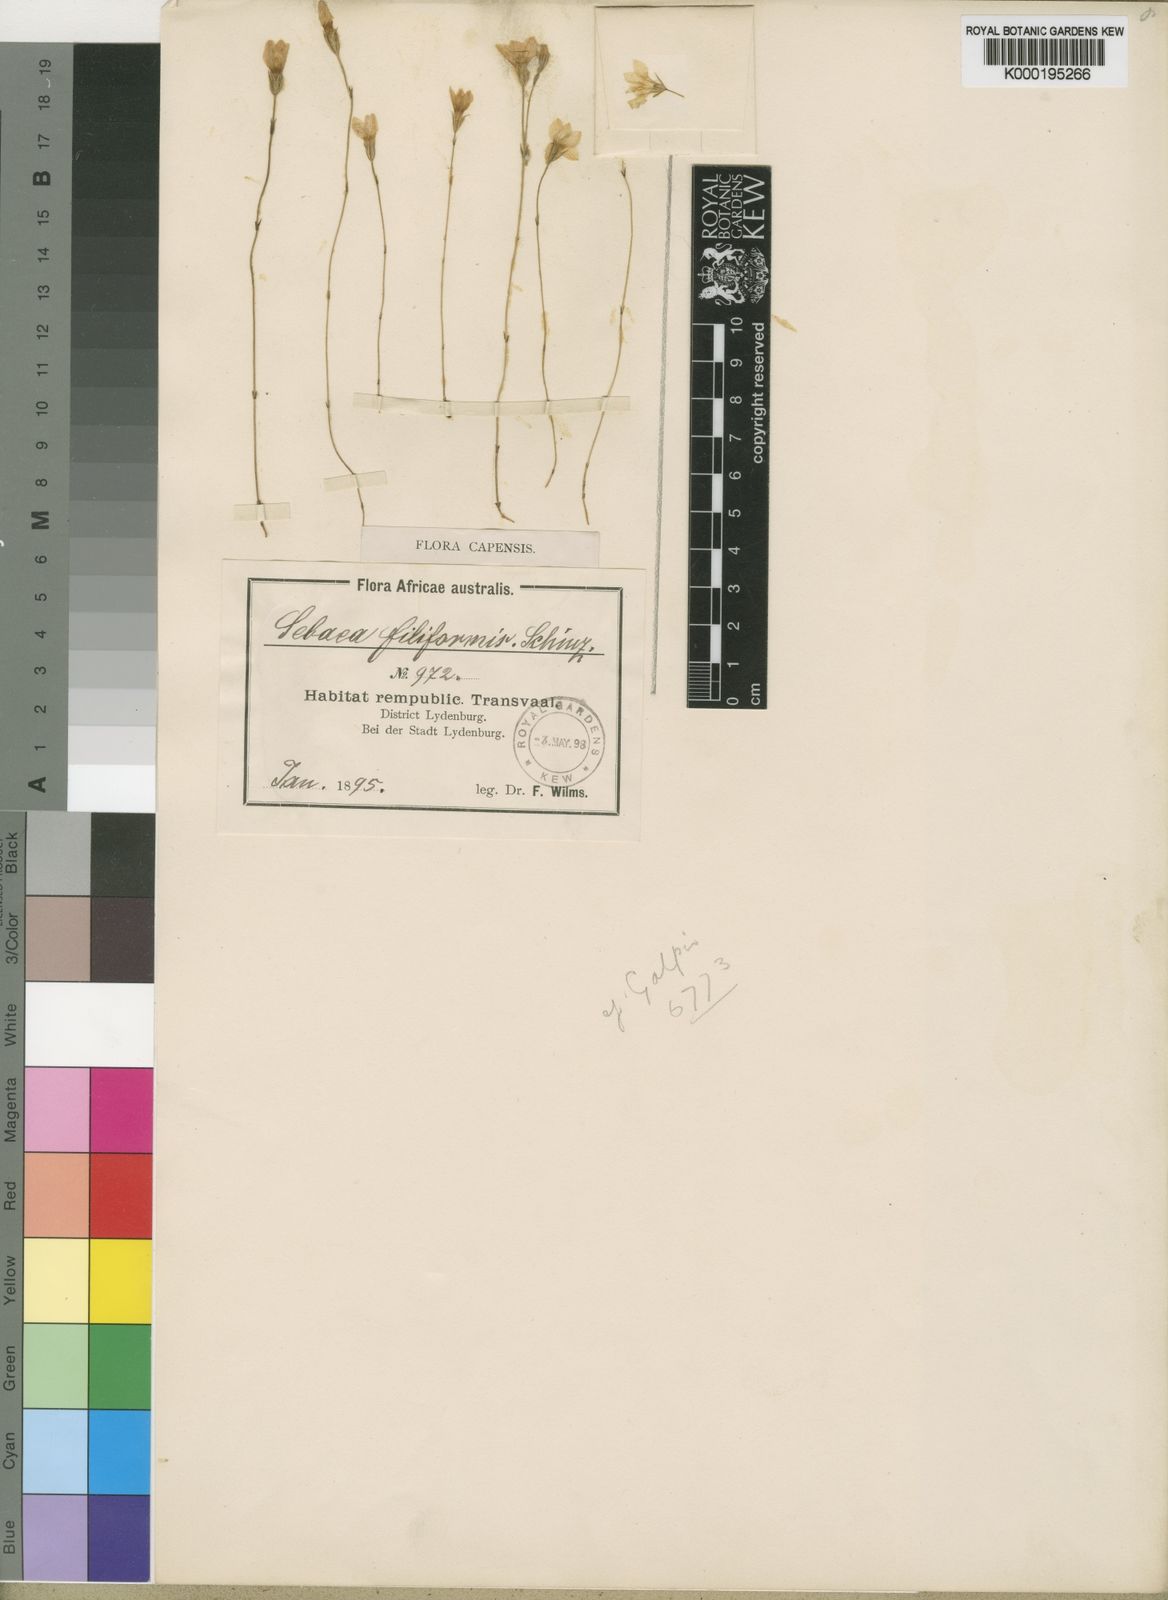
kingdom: Plantae
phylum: Tracheophyta
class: Magnoliopsida
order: Gentianales
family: Gentianaceae
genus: Sebaea
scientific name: Sebaea filiformis
